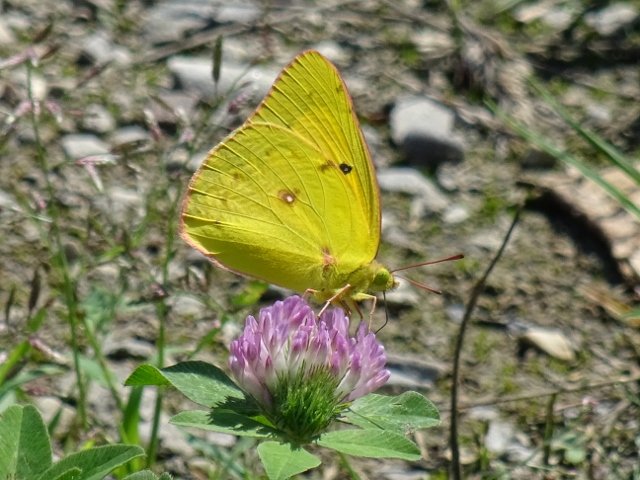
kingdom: Animalia
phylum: Arthropoda
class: Insecta
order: Lepidoptera
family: Pieridae
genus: Colias
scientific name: Colias philodice
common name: Clouded Sulphur
